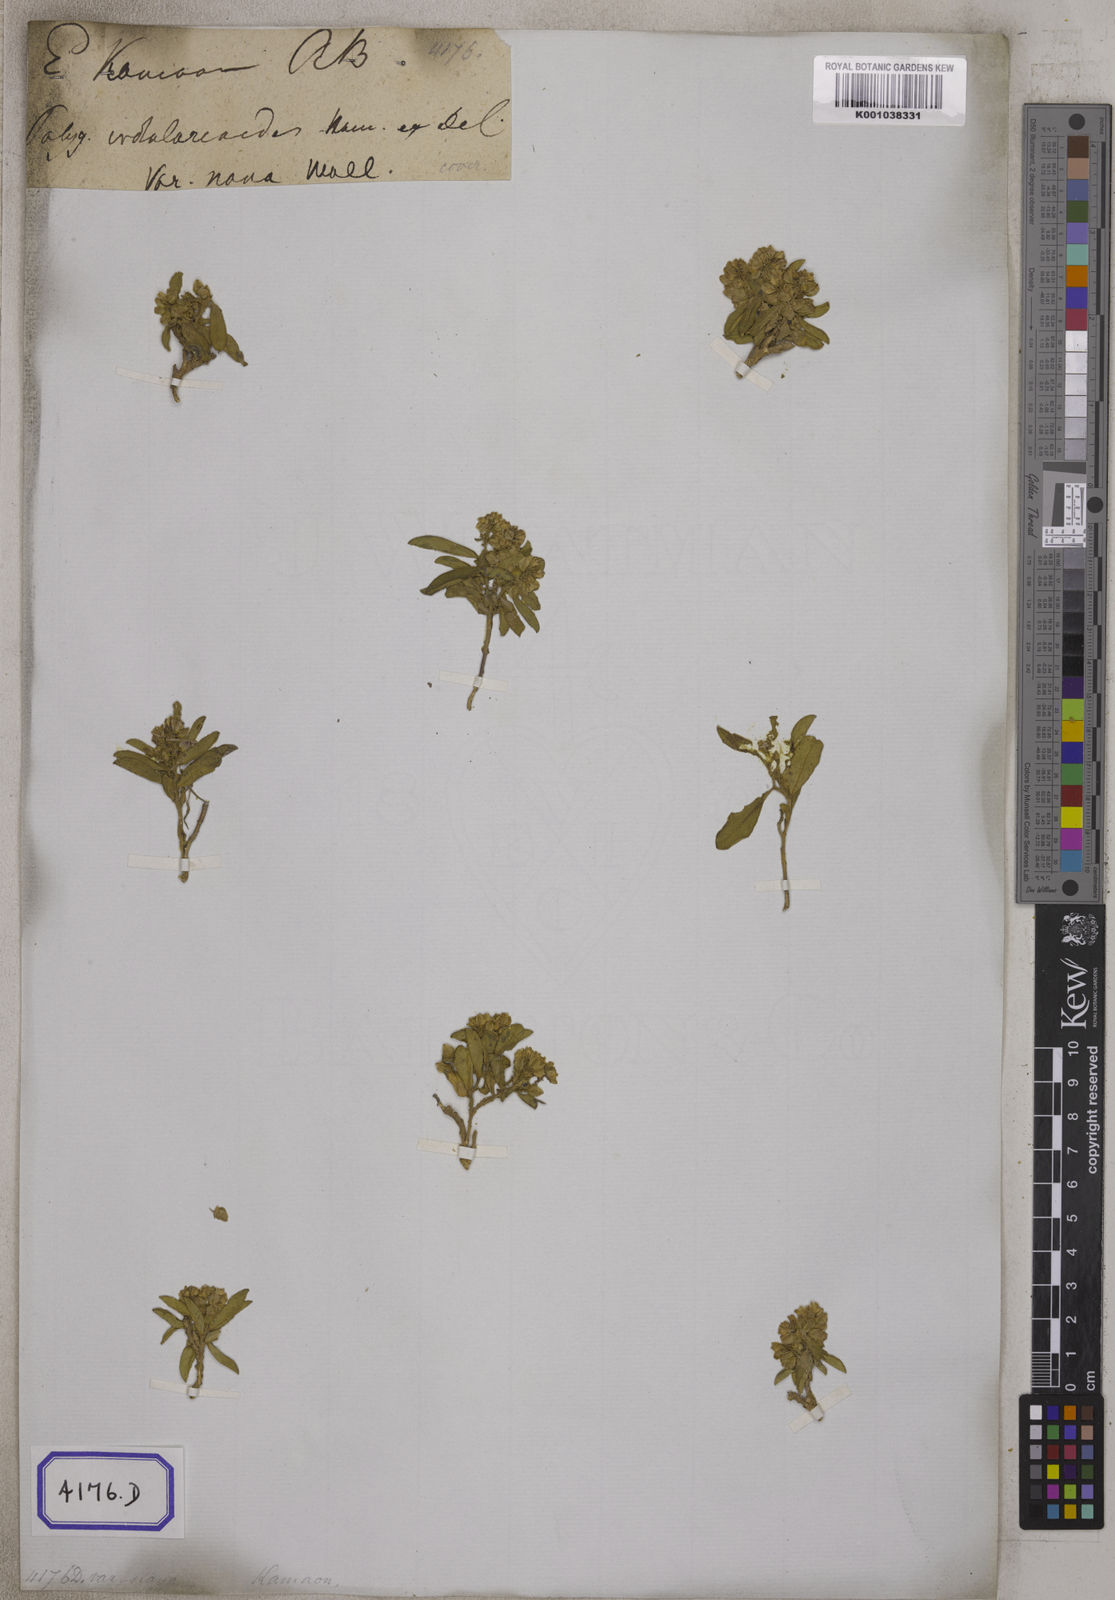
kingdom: Plantae
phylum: Tracheophyta
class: Magnoliopsida
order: Fabales
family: Polygalaceae
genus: Polygala
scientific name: Polygala crotalarioides
